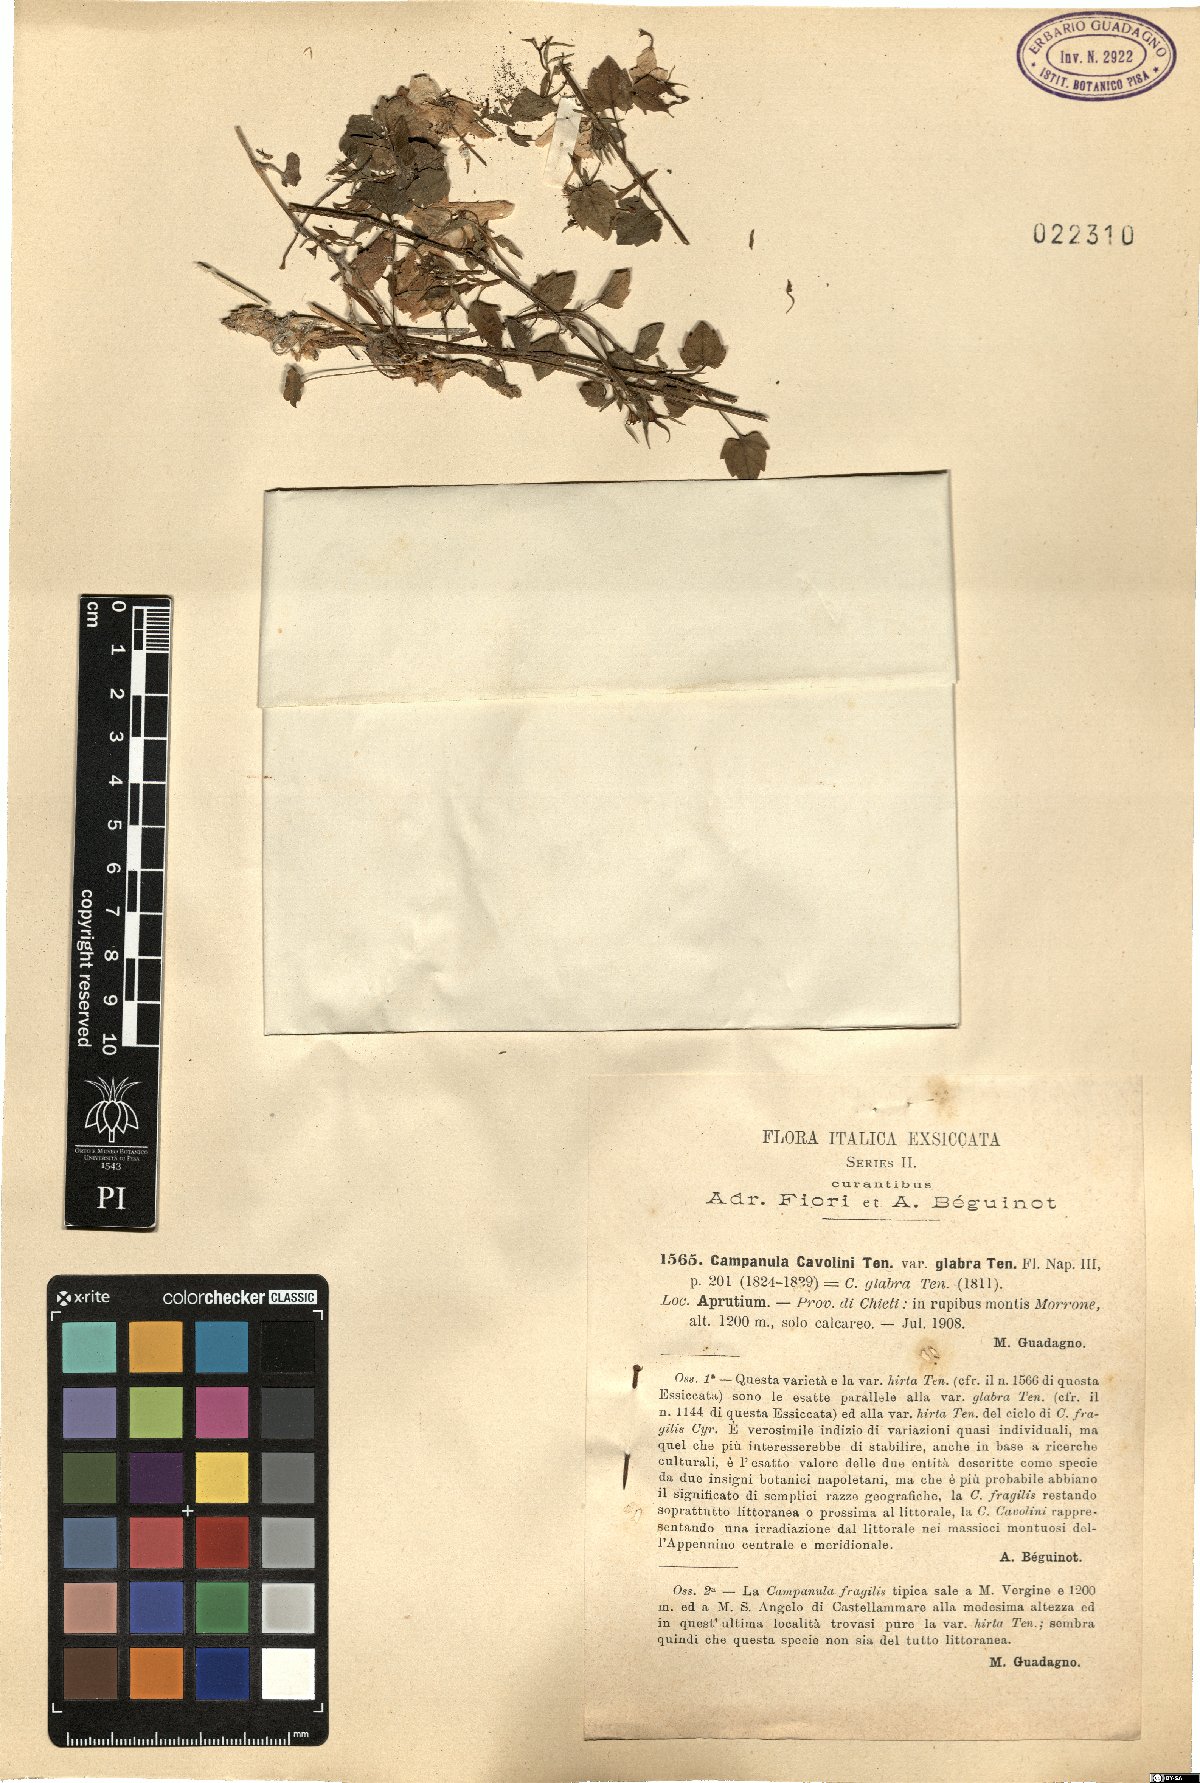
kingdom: Plantae
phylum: Tracheophyta
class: Magnoliopsida
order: Asterales
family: Campanulaceae
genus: Campanula
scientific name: Campanula fragilis
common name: Italian bellflower
